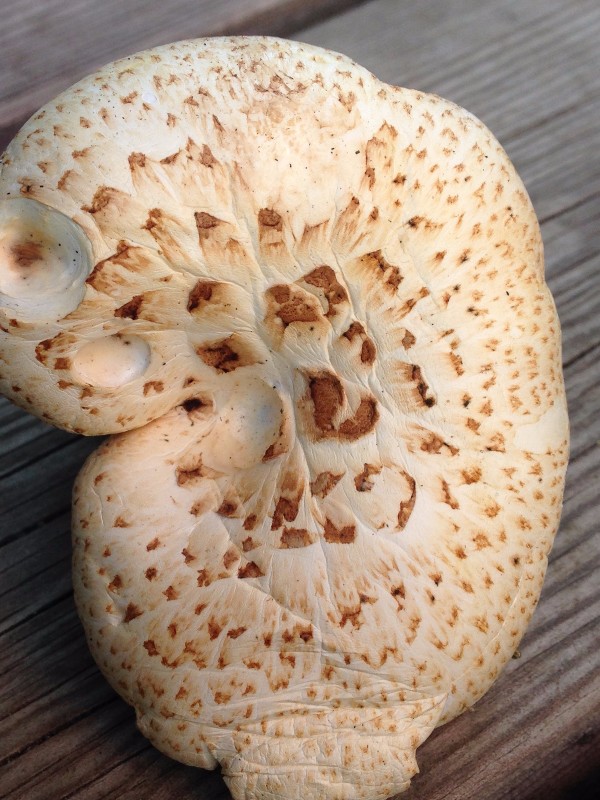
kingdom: Fungi
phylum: Basidiomycota
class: Agaricomycetes
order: Gloeophyllales
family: Gloeophyllaceae
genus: Neolentinus
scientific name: Neolentinus lepideus
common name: skællet sejhat
